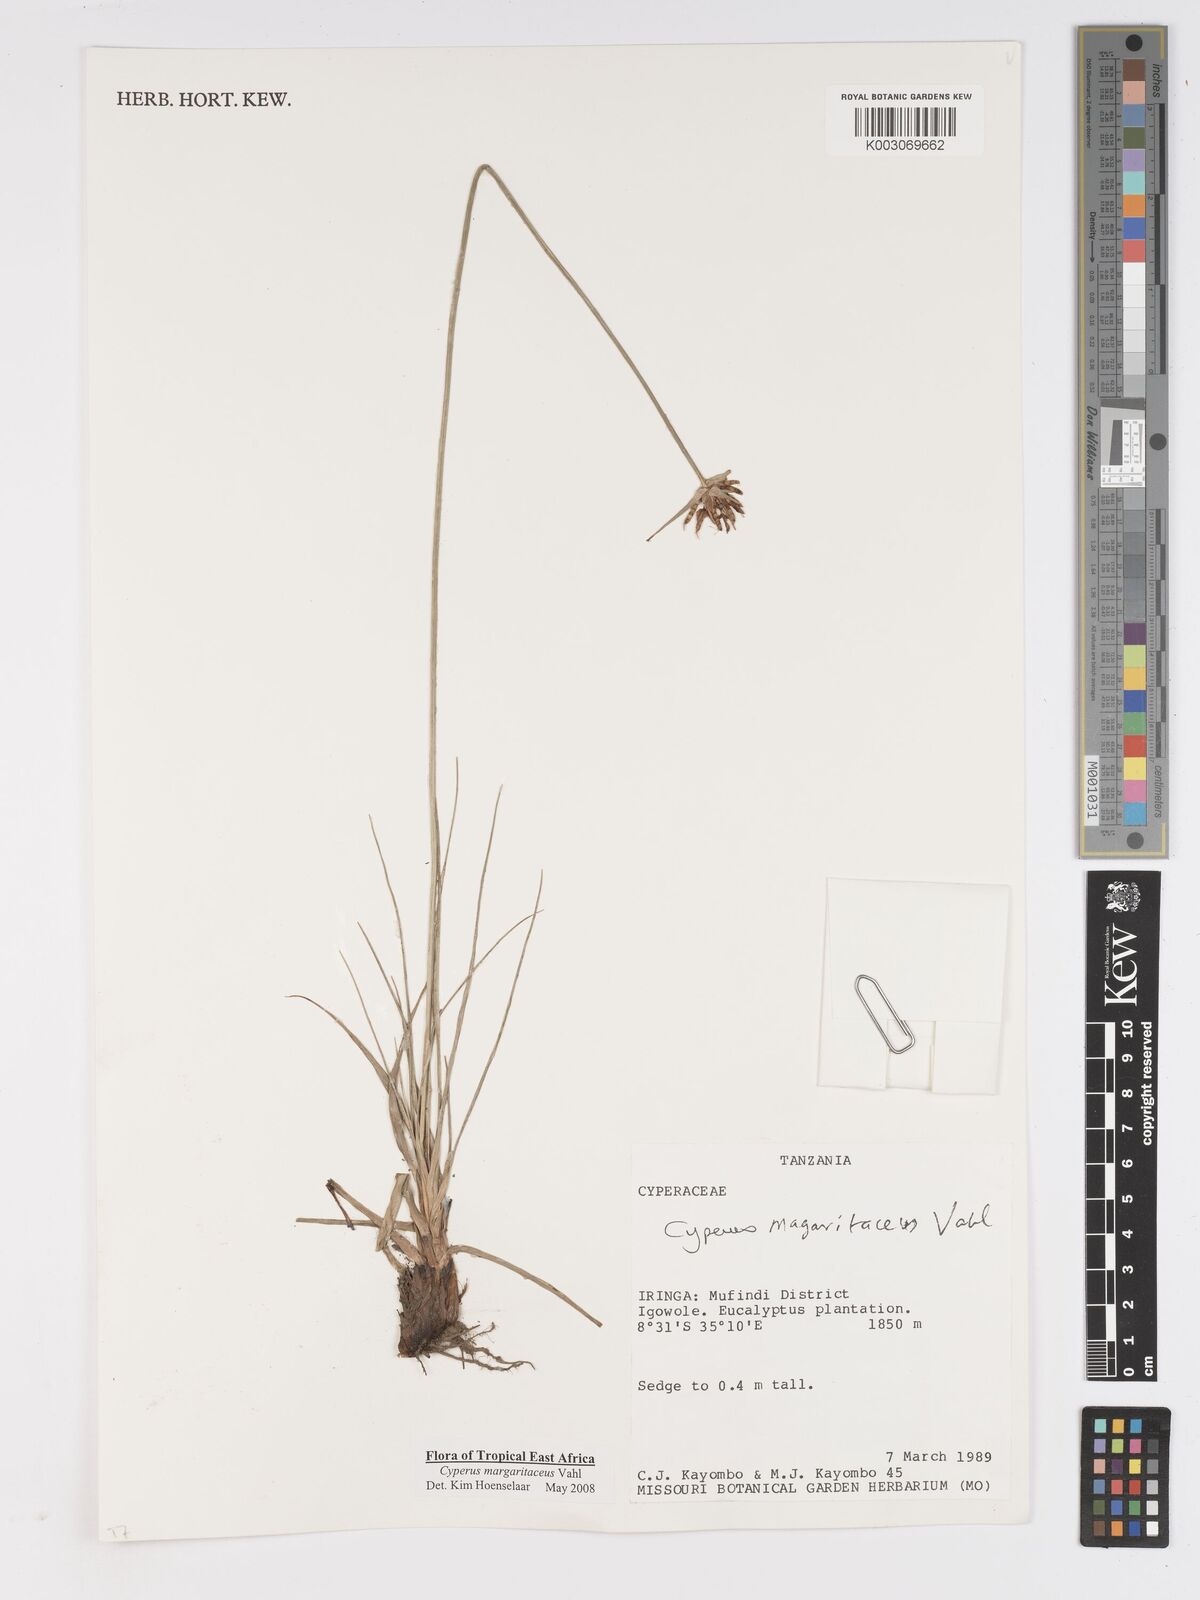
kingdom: Plantae
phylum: Tracheophyta
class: Liliopsida
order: Poales
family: Cyperaceae
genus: Cyperus
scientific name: Cyperus margaritaceus
